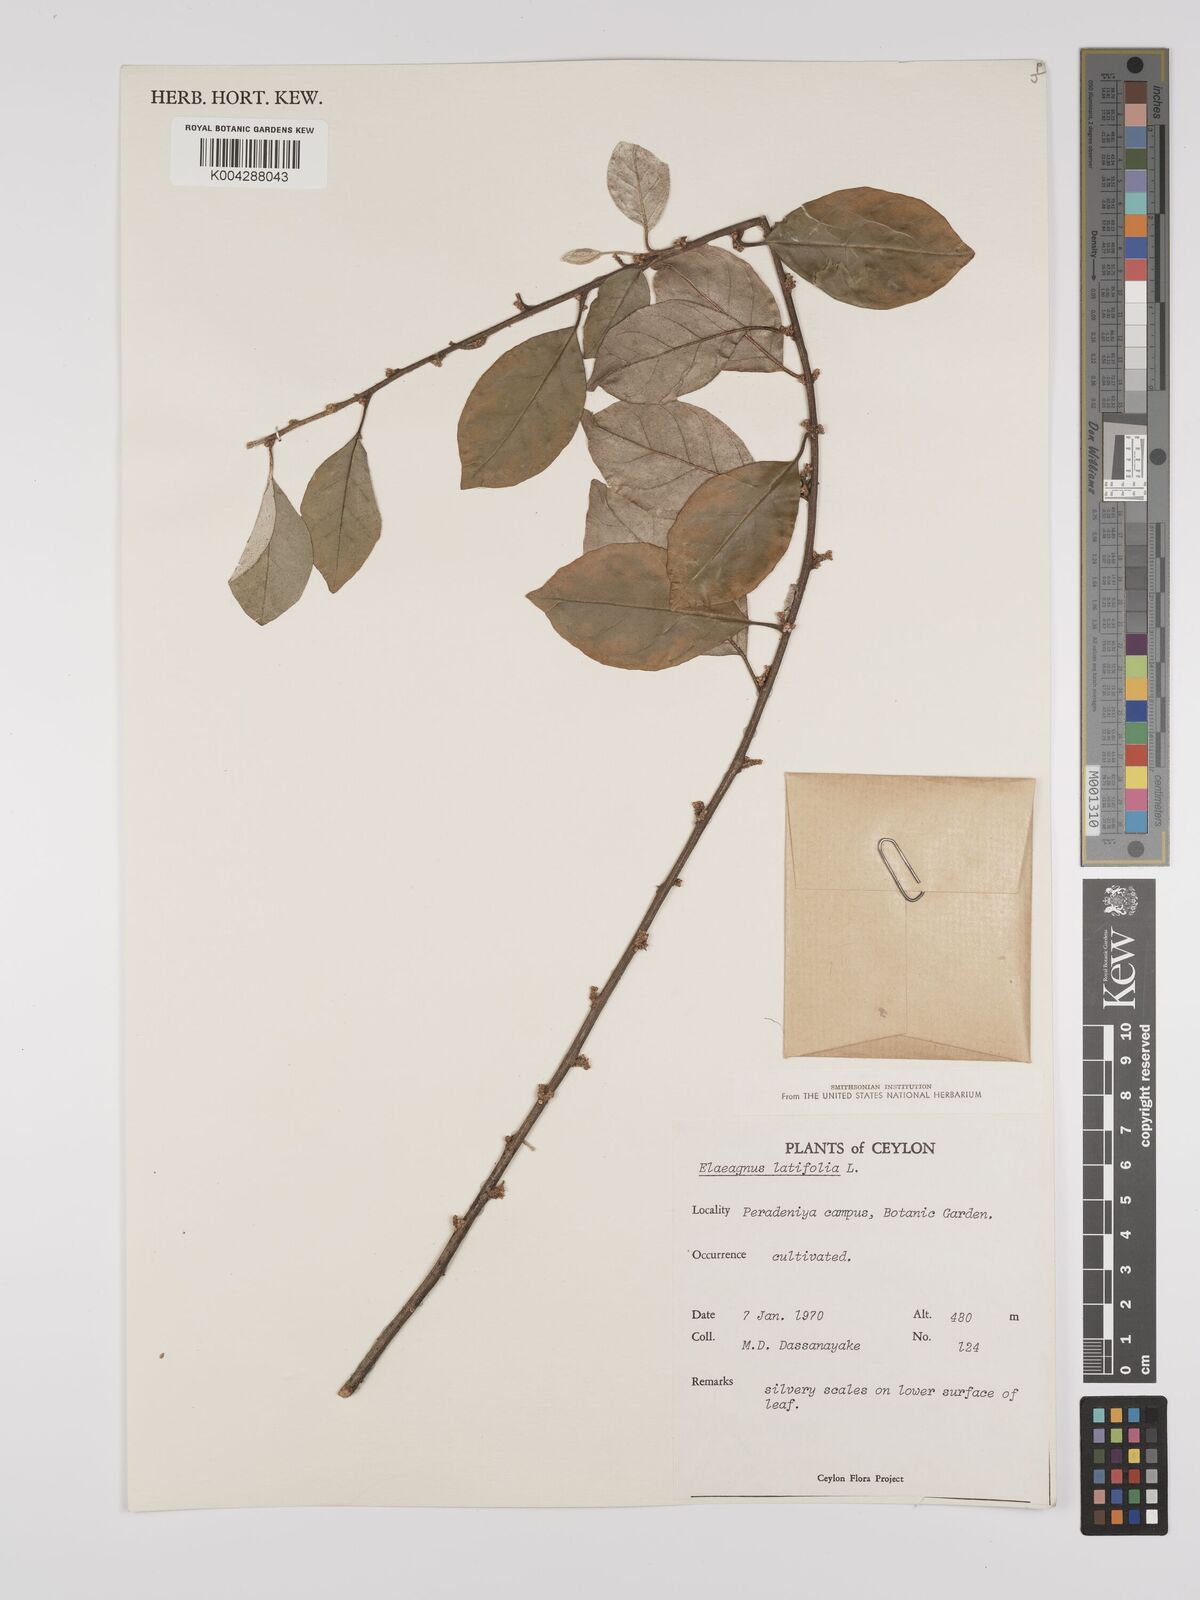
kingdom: Plantae
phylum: Tracheophyta
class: Magnoliopsida
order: Rosales
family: Elaeagnaceae
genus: Elaeagnus
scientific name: Elaeagnus latifolia
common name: Oleaster
